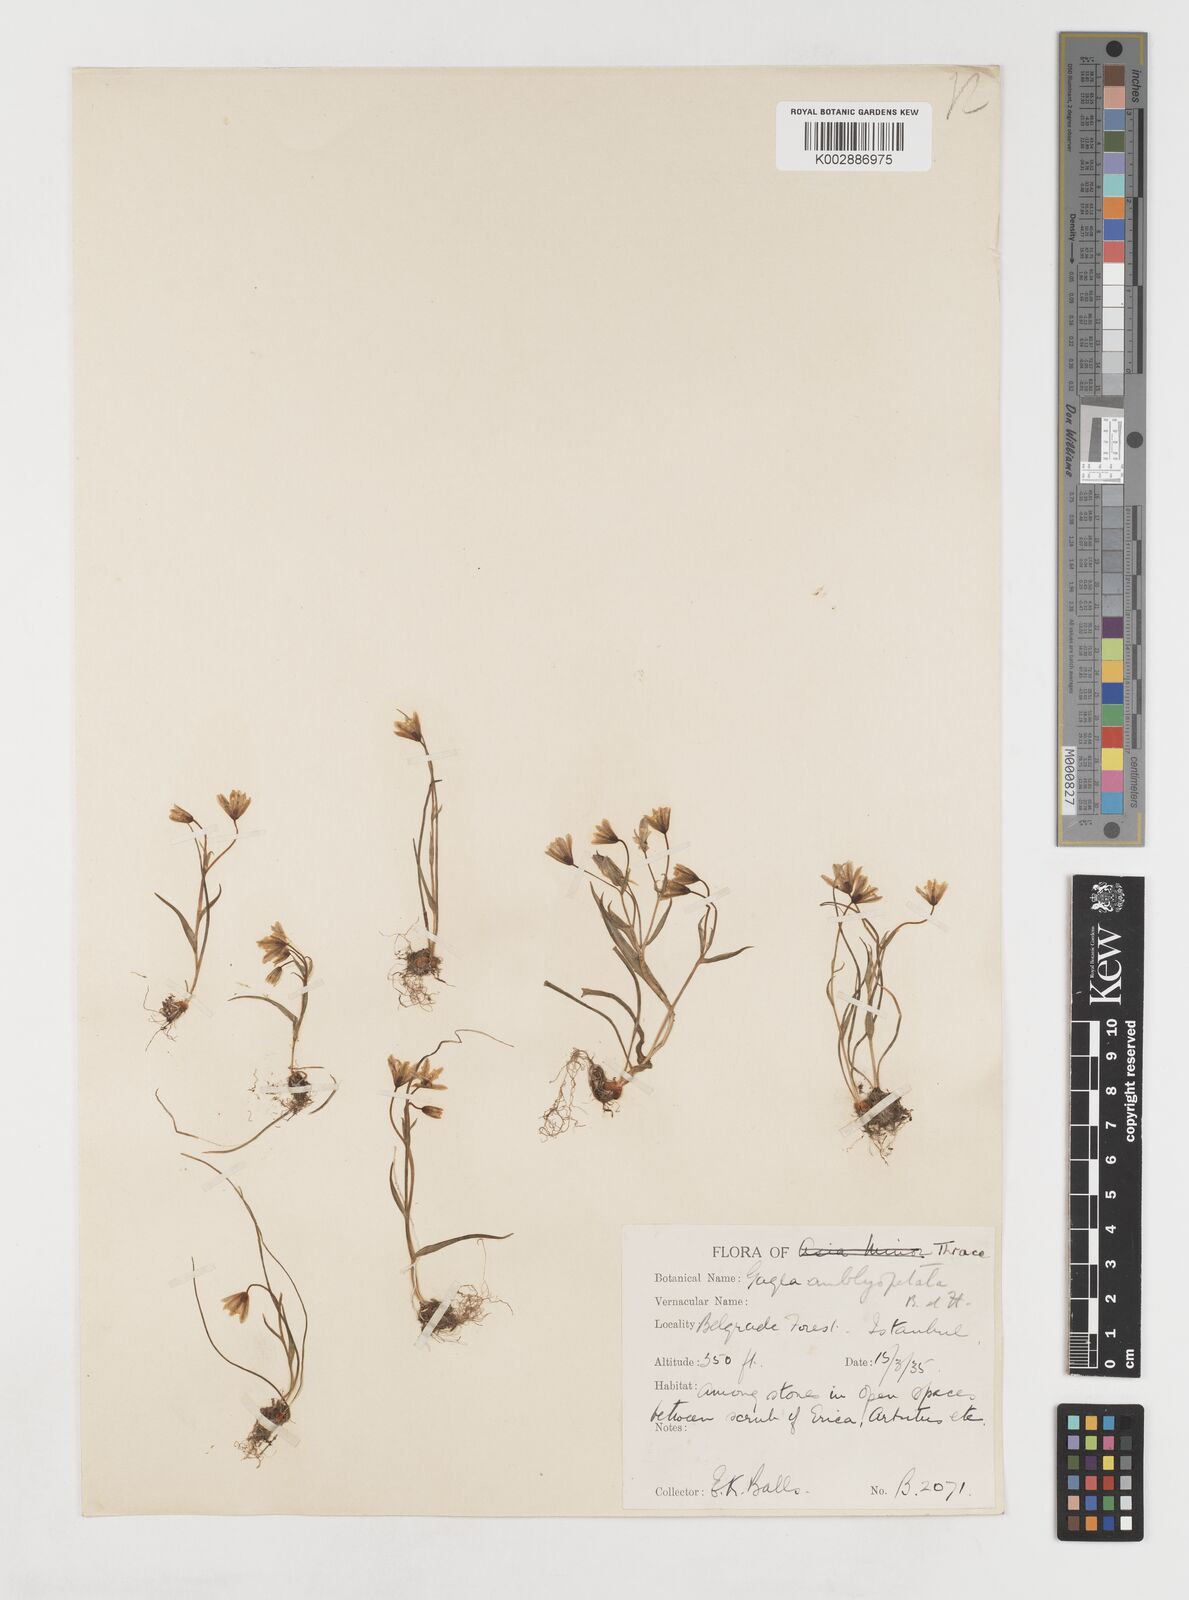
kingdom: Plantae
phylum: Tracheophyta
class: Liliopsida
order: Liliales
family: Liliaceae
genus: Gagea
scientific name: Gagea amblyopetala
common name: Blunt-flowered gagea
